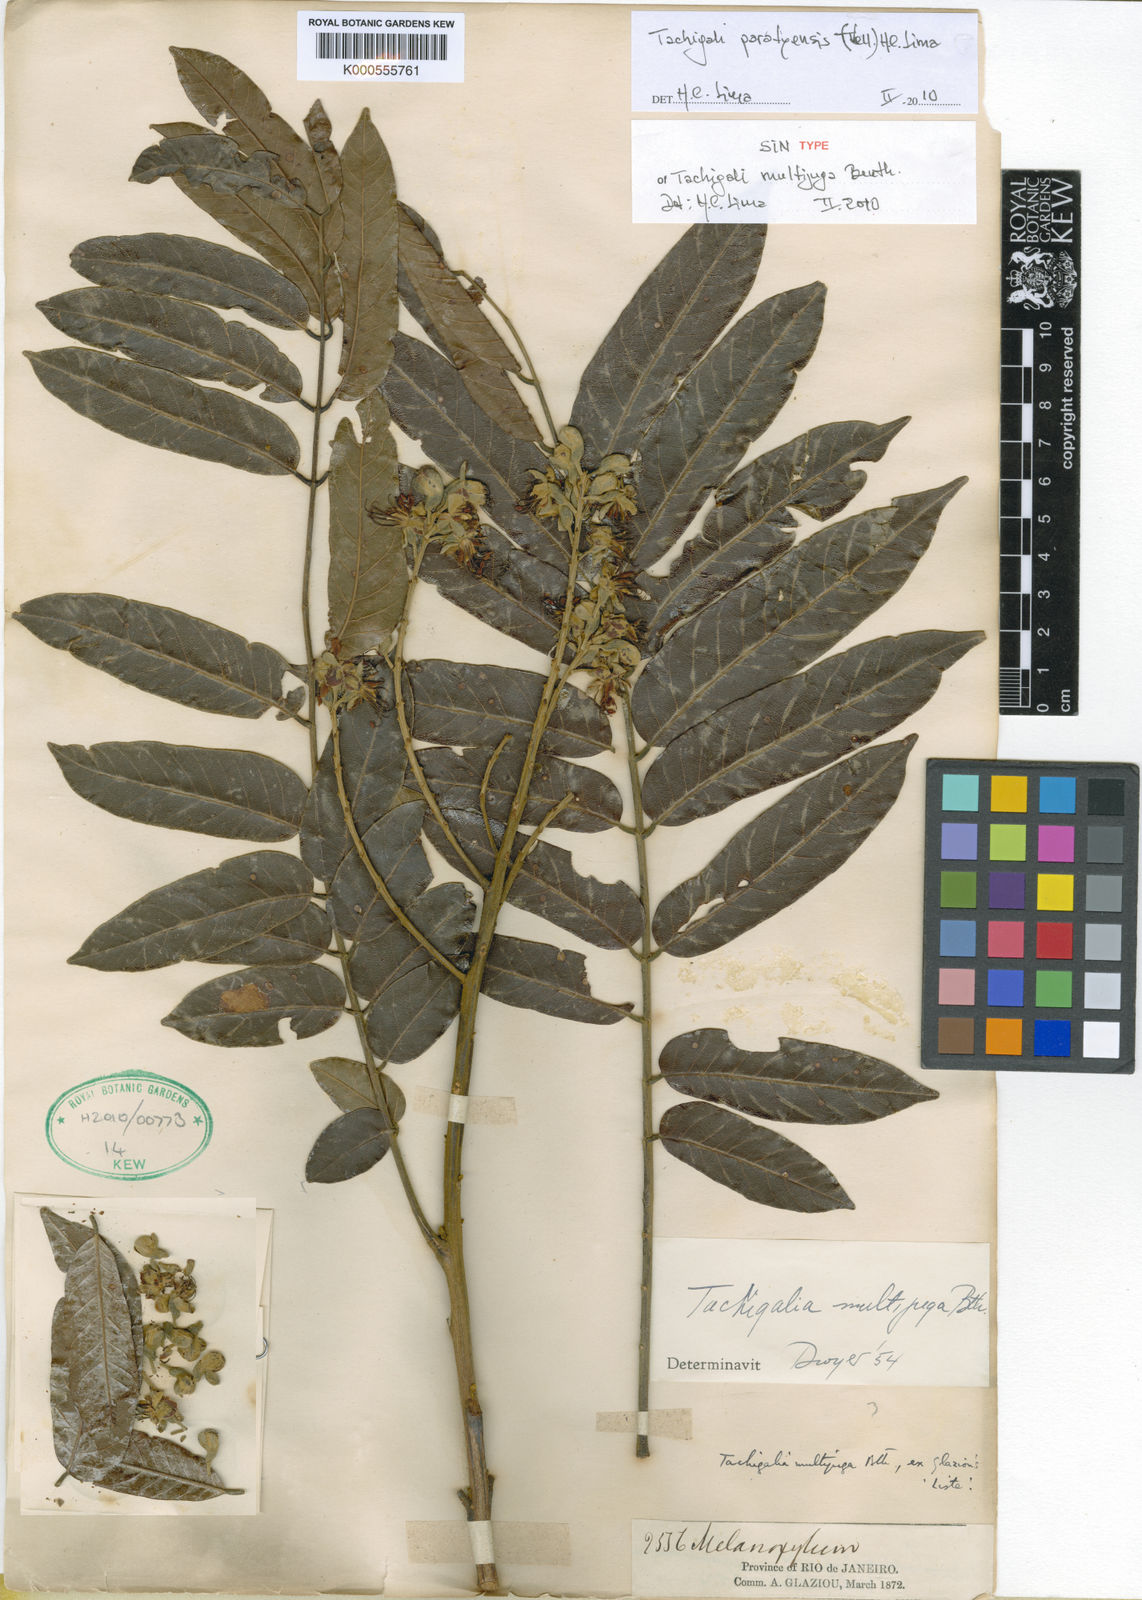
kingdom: Plantae
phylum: Tracheophyta
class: Magnoliopsida
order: Fabales
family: Fabaceae
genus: Tachigali
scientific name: Tachigali paratyensis
